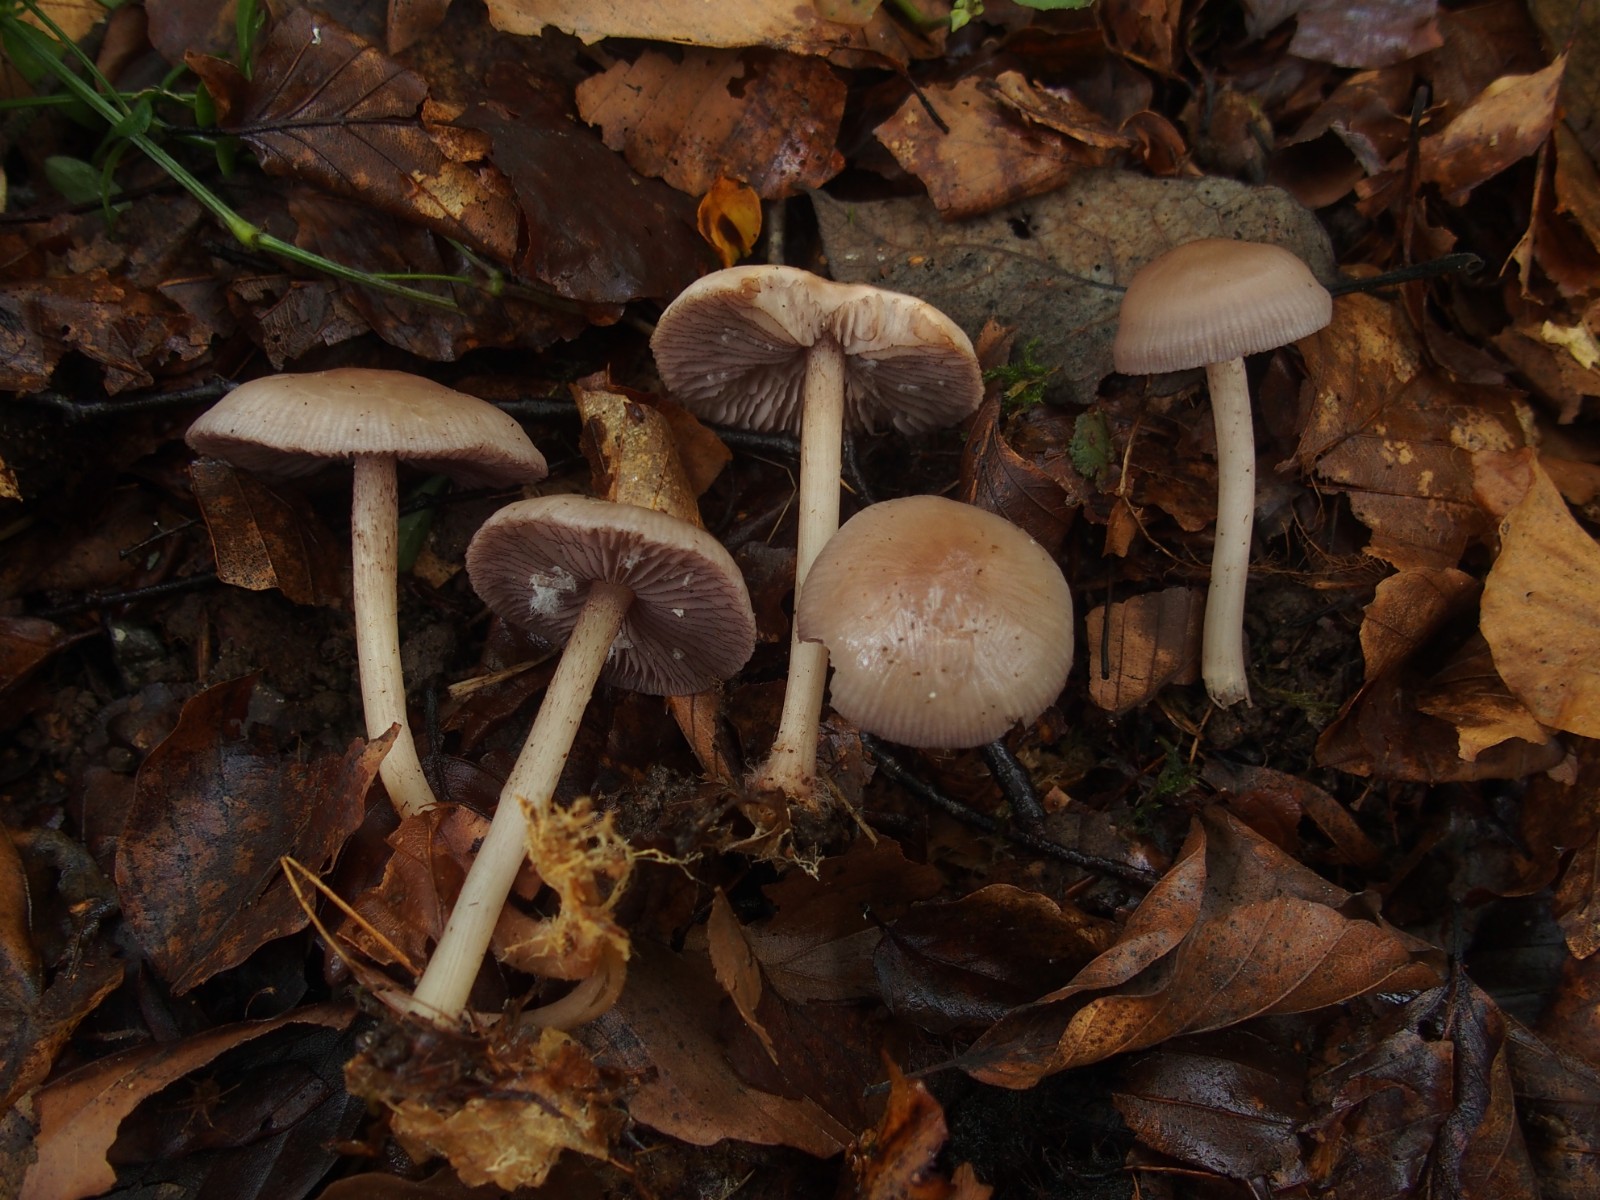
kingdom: Fungi
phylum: Basidiomycota
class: Agaricomycetes
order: Agaricales
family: Mycenaceae
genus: Mycena
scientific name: Mycena pelianthina
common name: mørkbladet huesvamp
